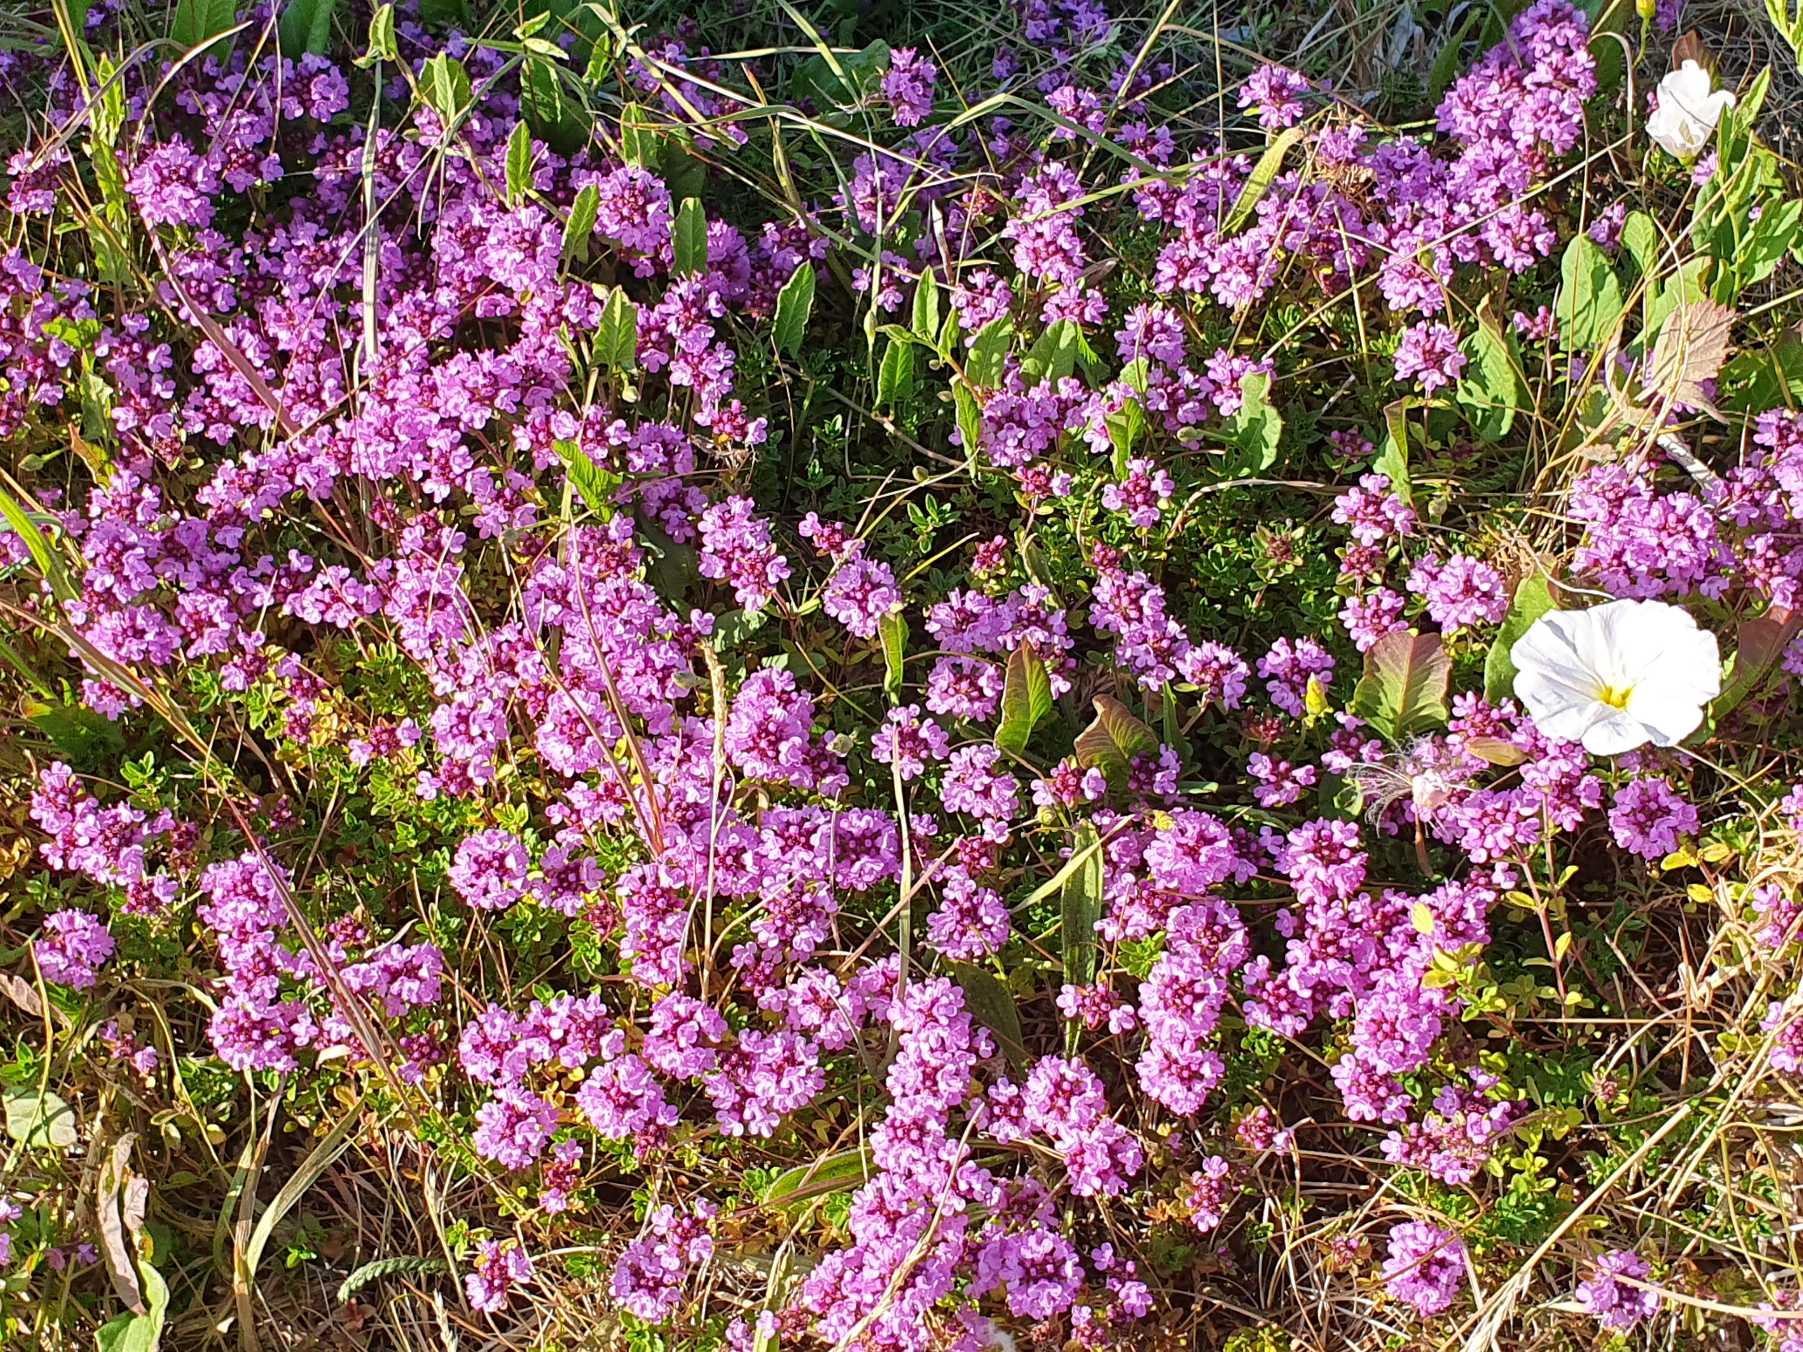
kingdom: Plantae
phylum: Tracheophyta
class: Magnoliopsida
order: Lamiales
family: Lamiaceae
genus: Thymus
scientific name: Thymus serpyllum
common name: Smalbladet timian
